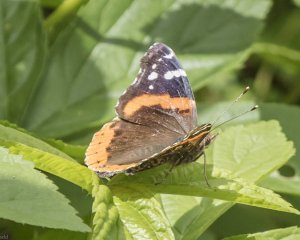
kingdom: Animalia
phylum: Arthropoda
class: Insecta
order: Lepidoptera
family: Nymphalidae
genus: Vanessa
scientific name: Vanessa atalanta
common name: Red Admiral
